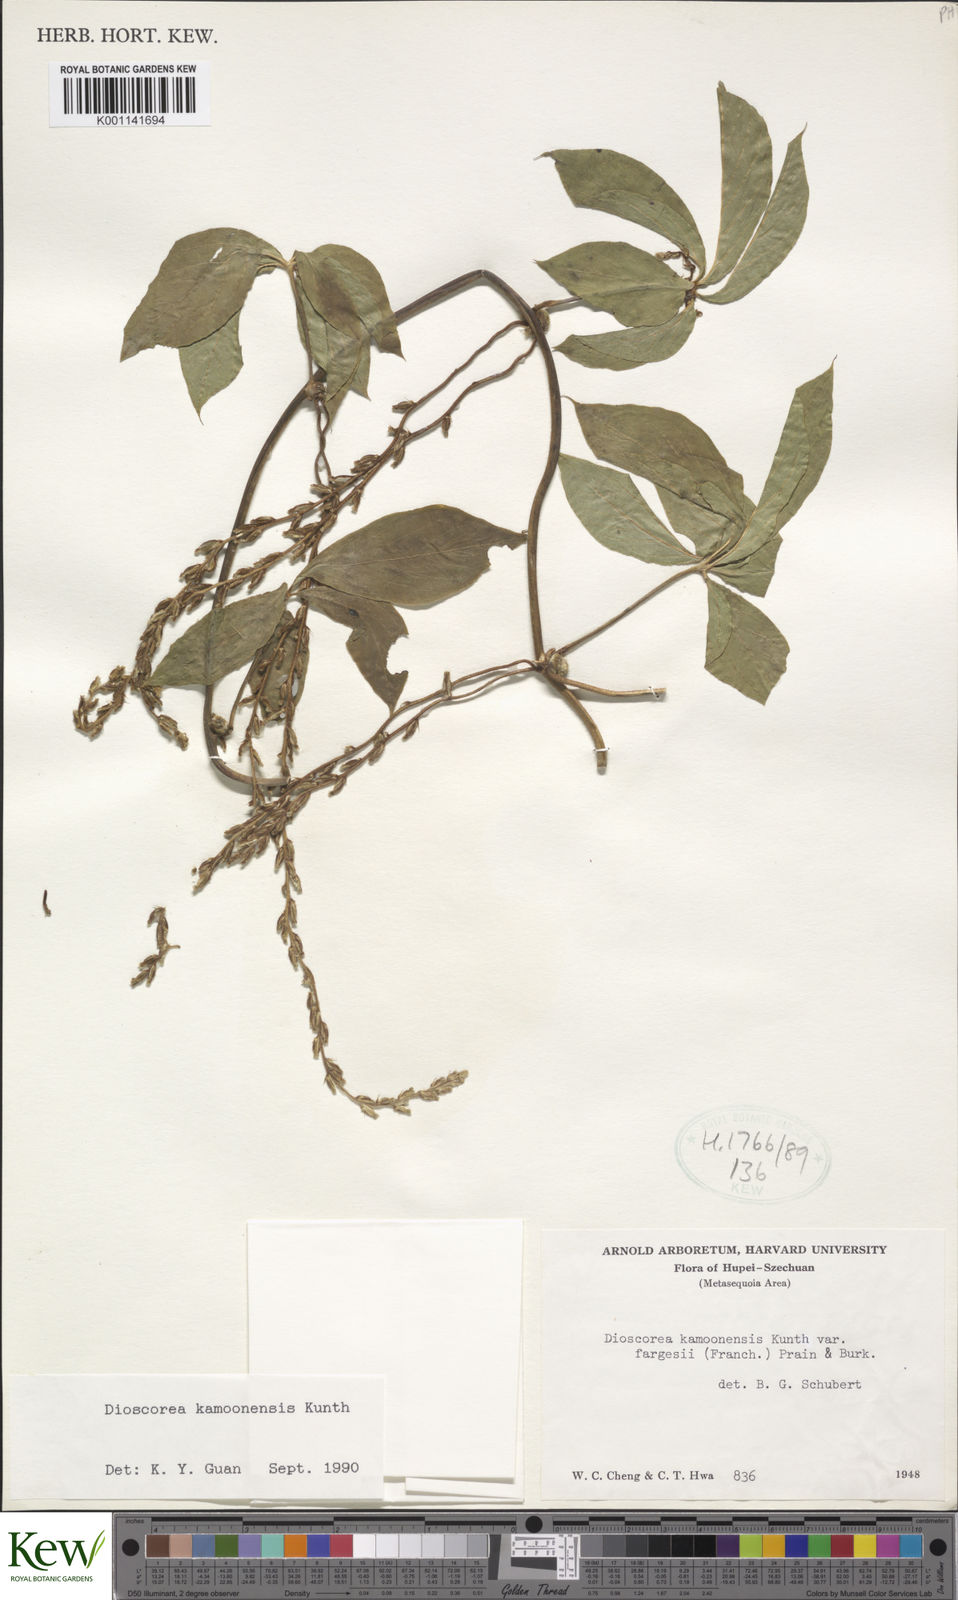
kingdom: Plantae
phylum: Tracheophyta
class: Liliopsida
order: Dioscoreales
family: Dioscoreaceae
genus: Dioscorea
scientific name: Dioscorea kamoonensis
